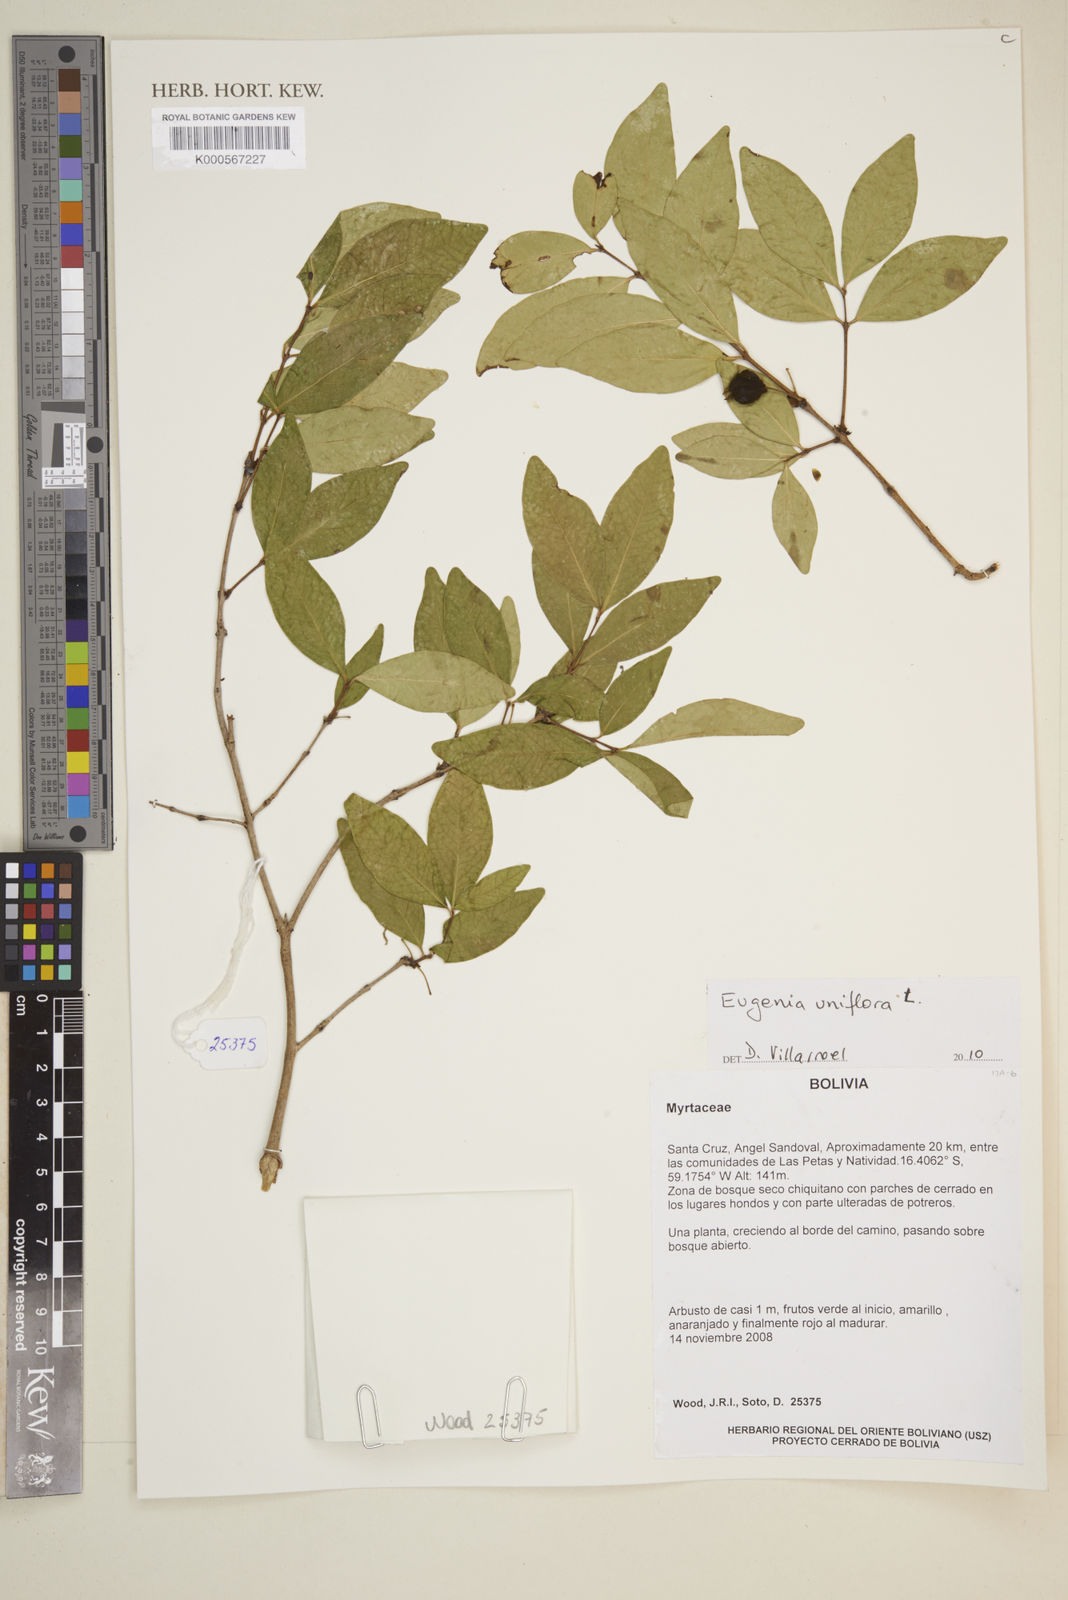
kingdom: Plantae
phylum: Tracheophyta
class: Magnoliopsida
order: Myrtales
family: Myrtaceae
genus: Eugenia
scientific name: Eugenia uniflora
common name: Surinam cherry
